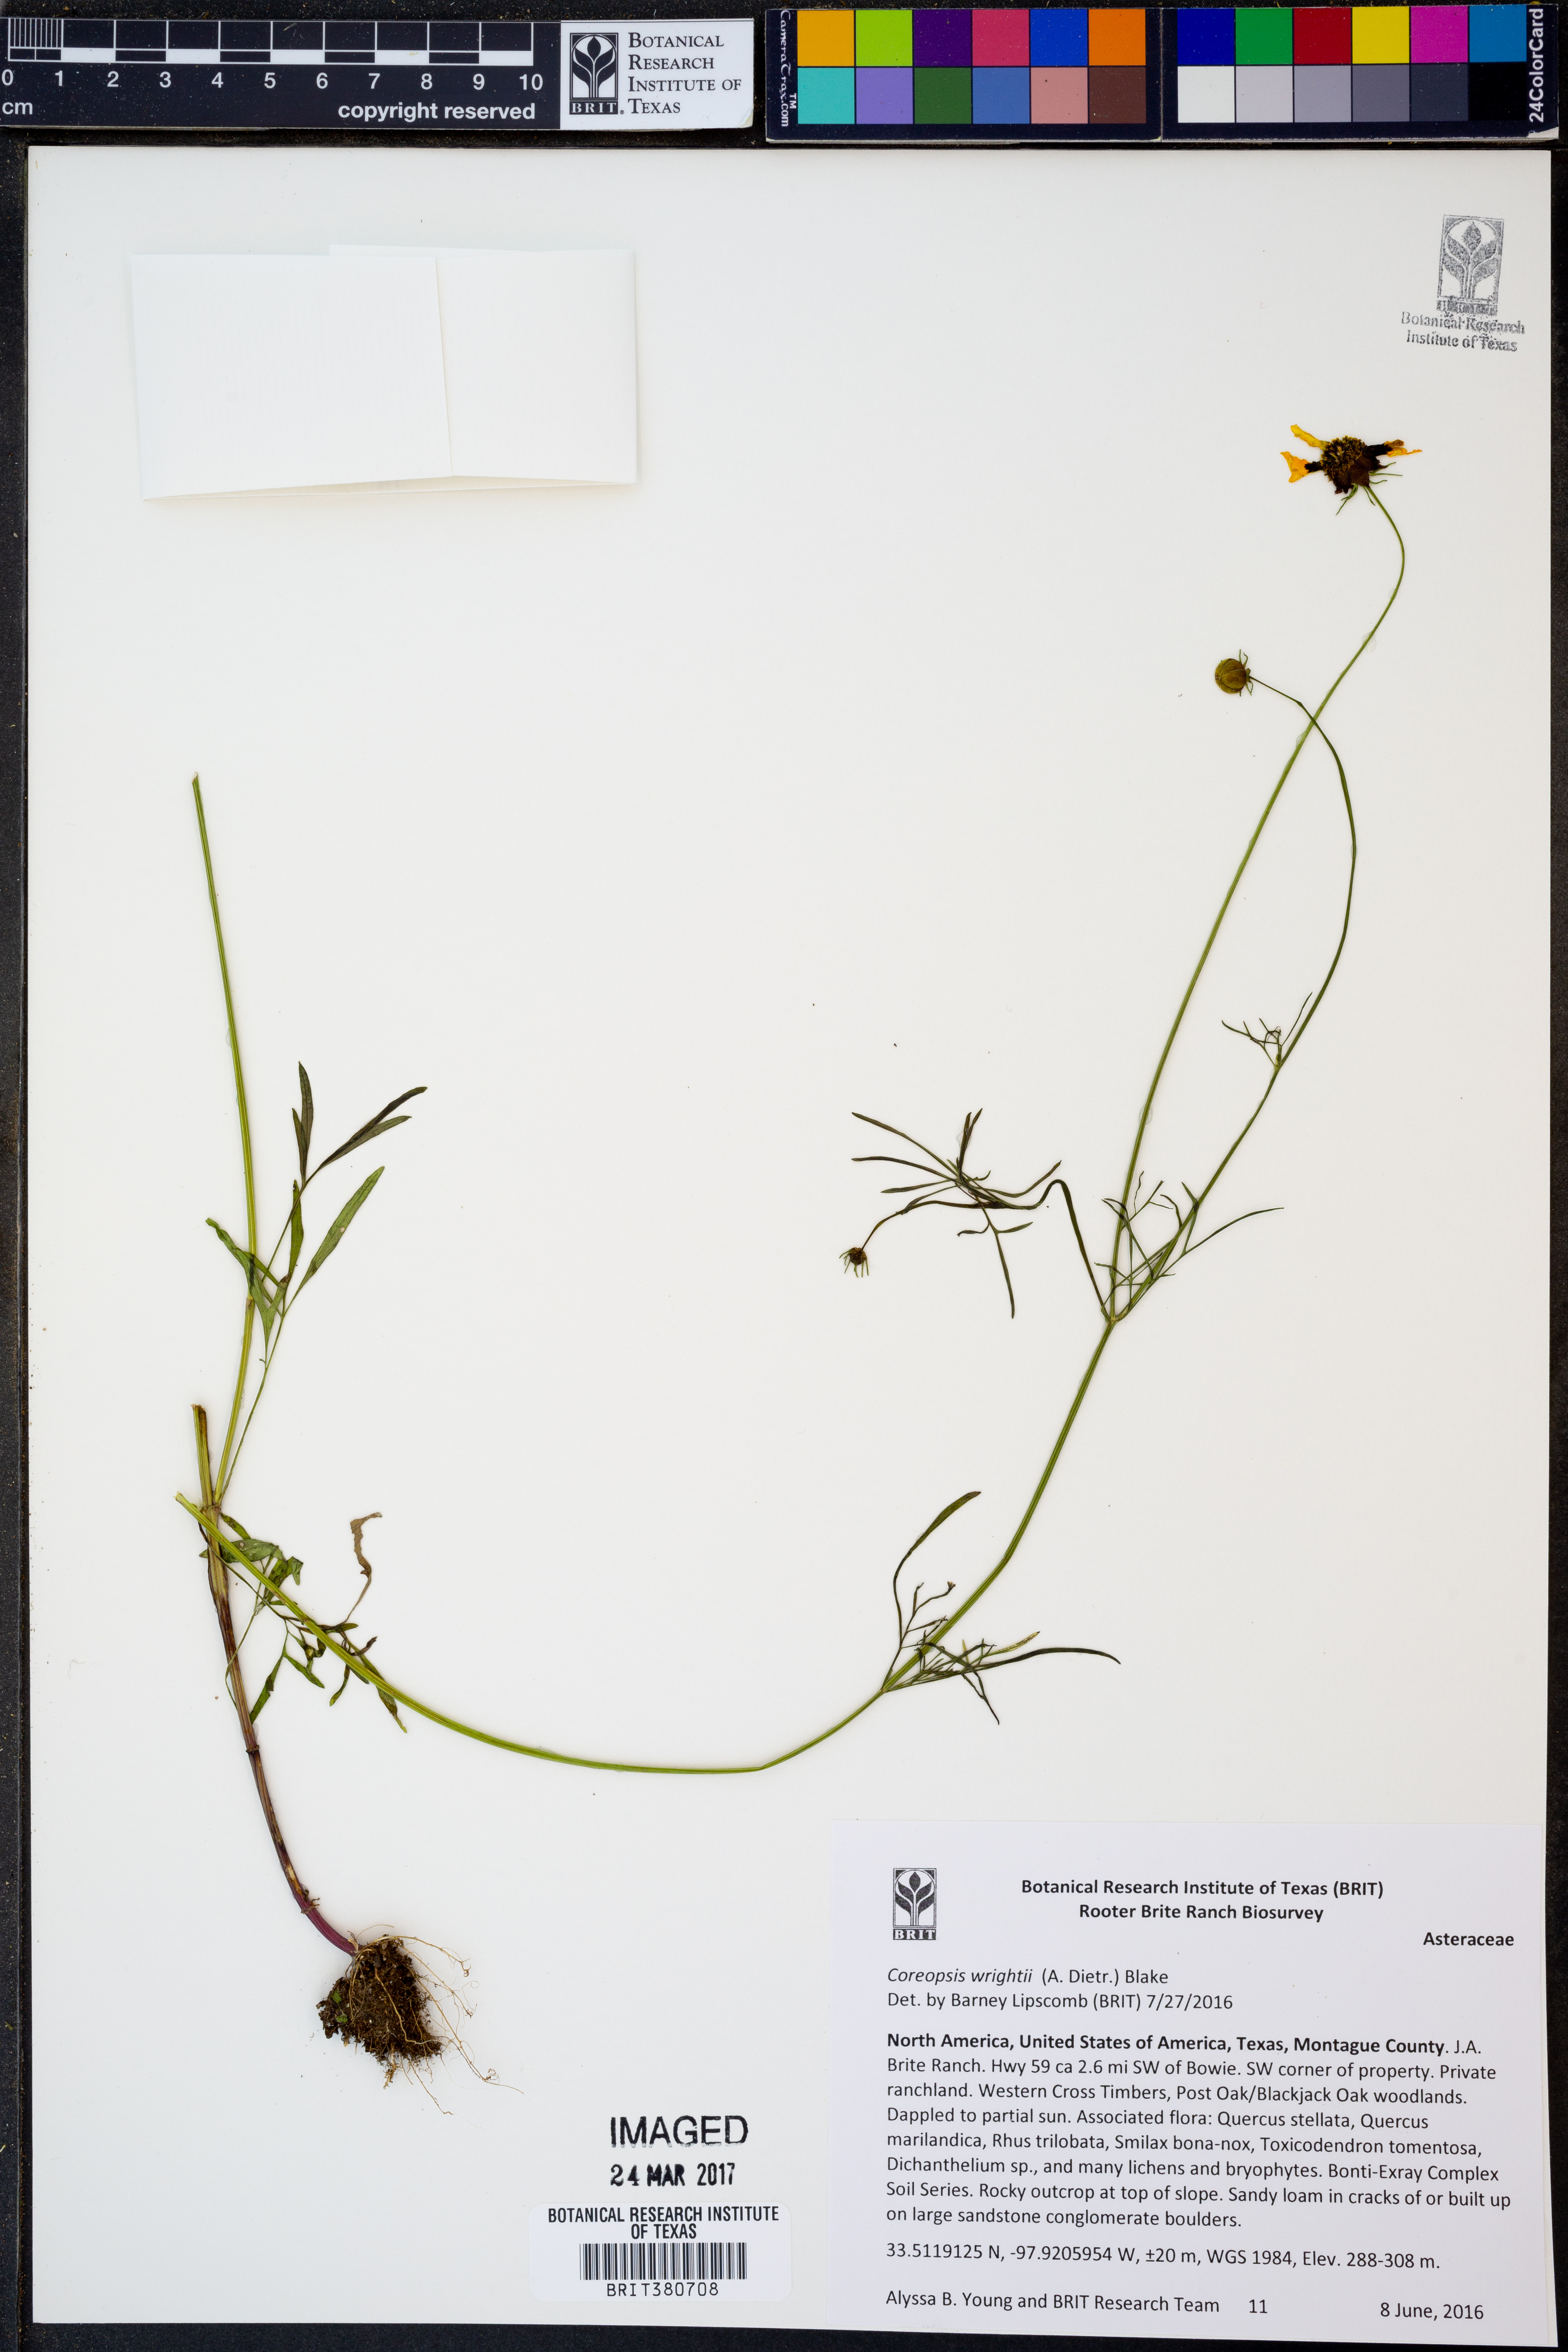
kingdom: Plantae
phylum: Tracheophyta
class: Magnoliopsida
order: Asterales
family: Asteraceae
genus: Coreopsis
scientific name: Coreopsis basalis
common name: Golden-mane coreopsis
